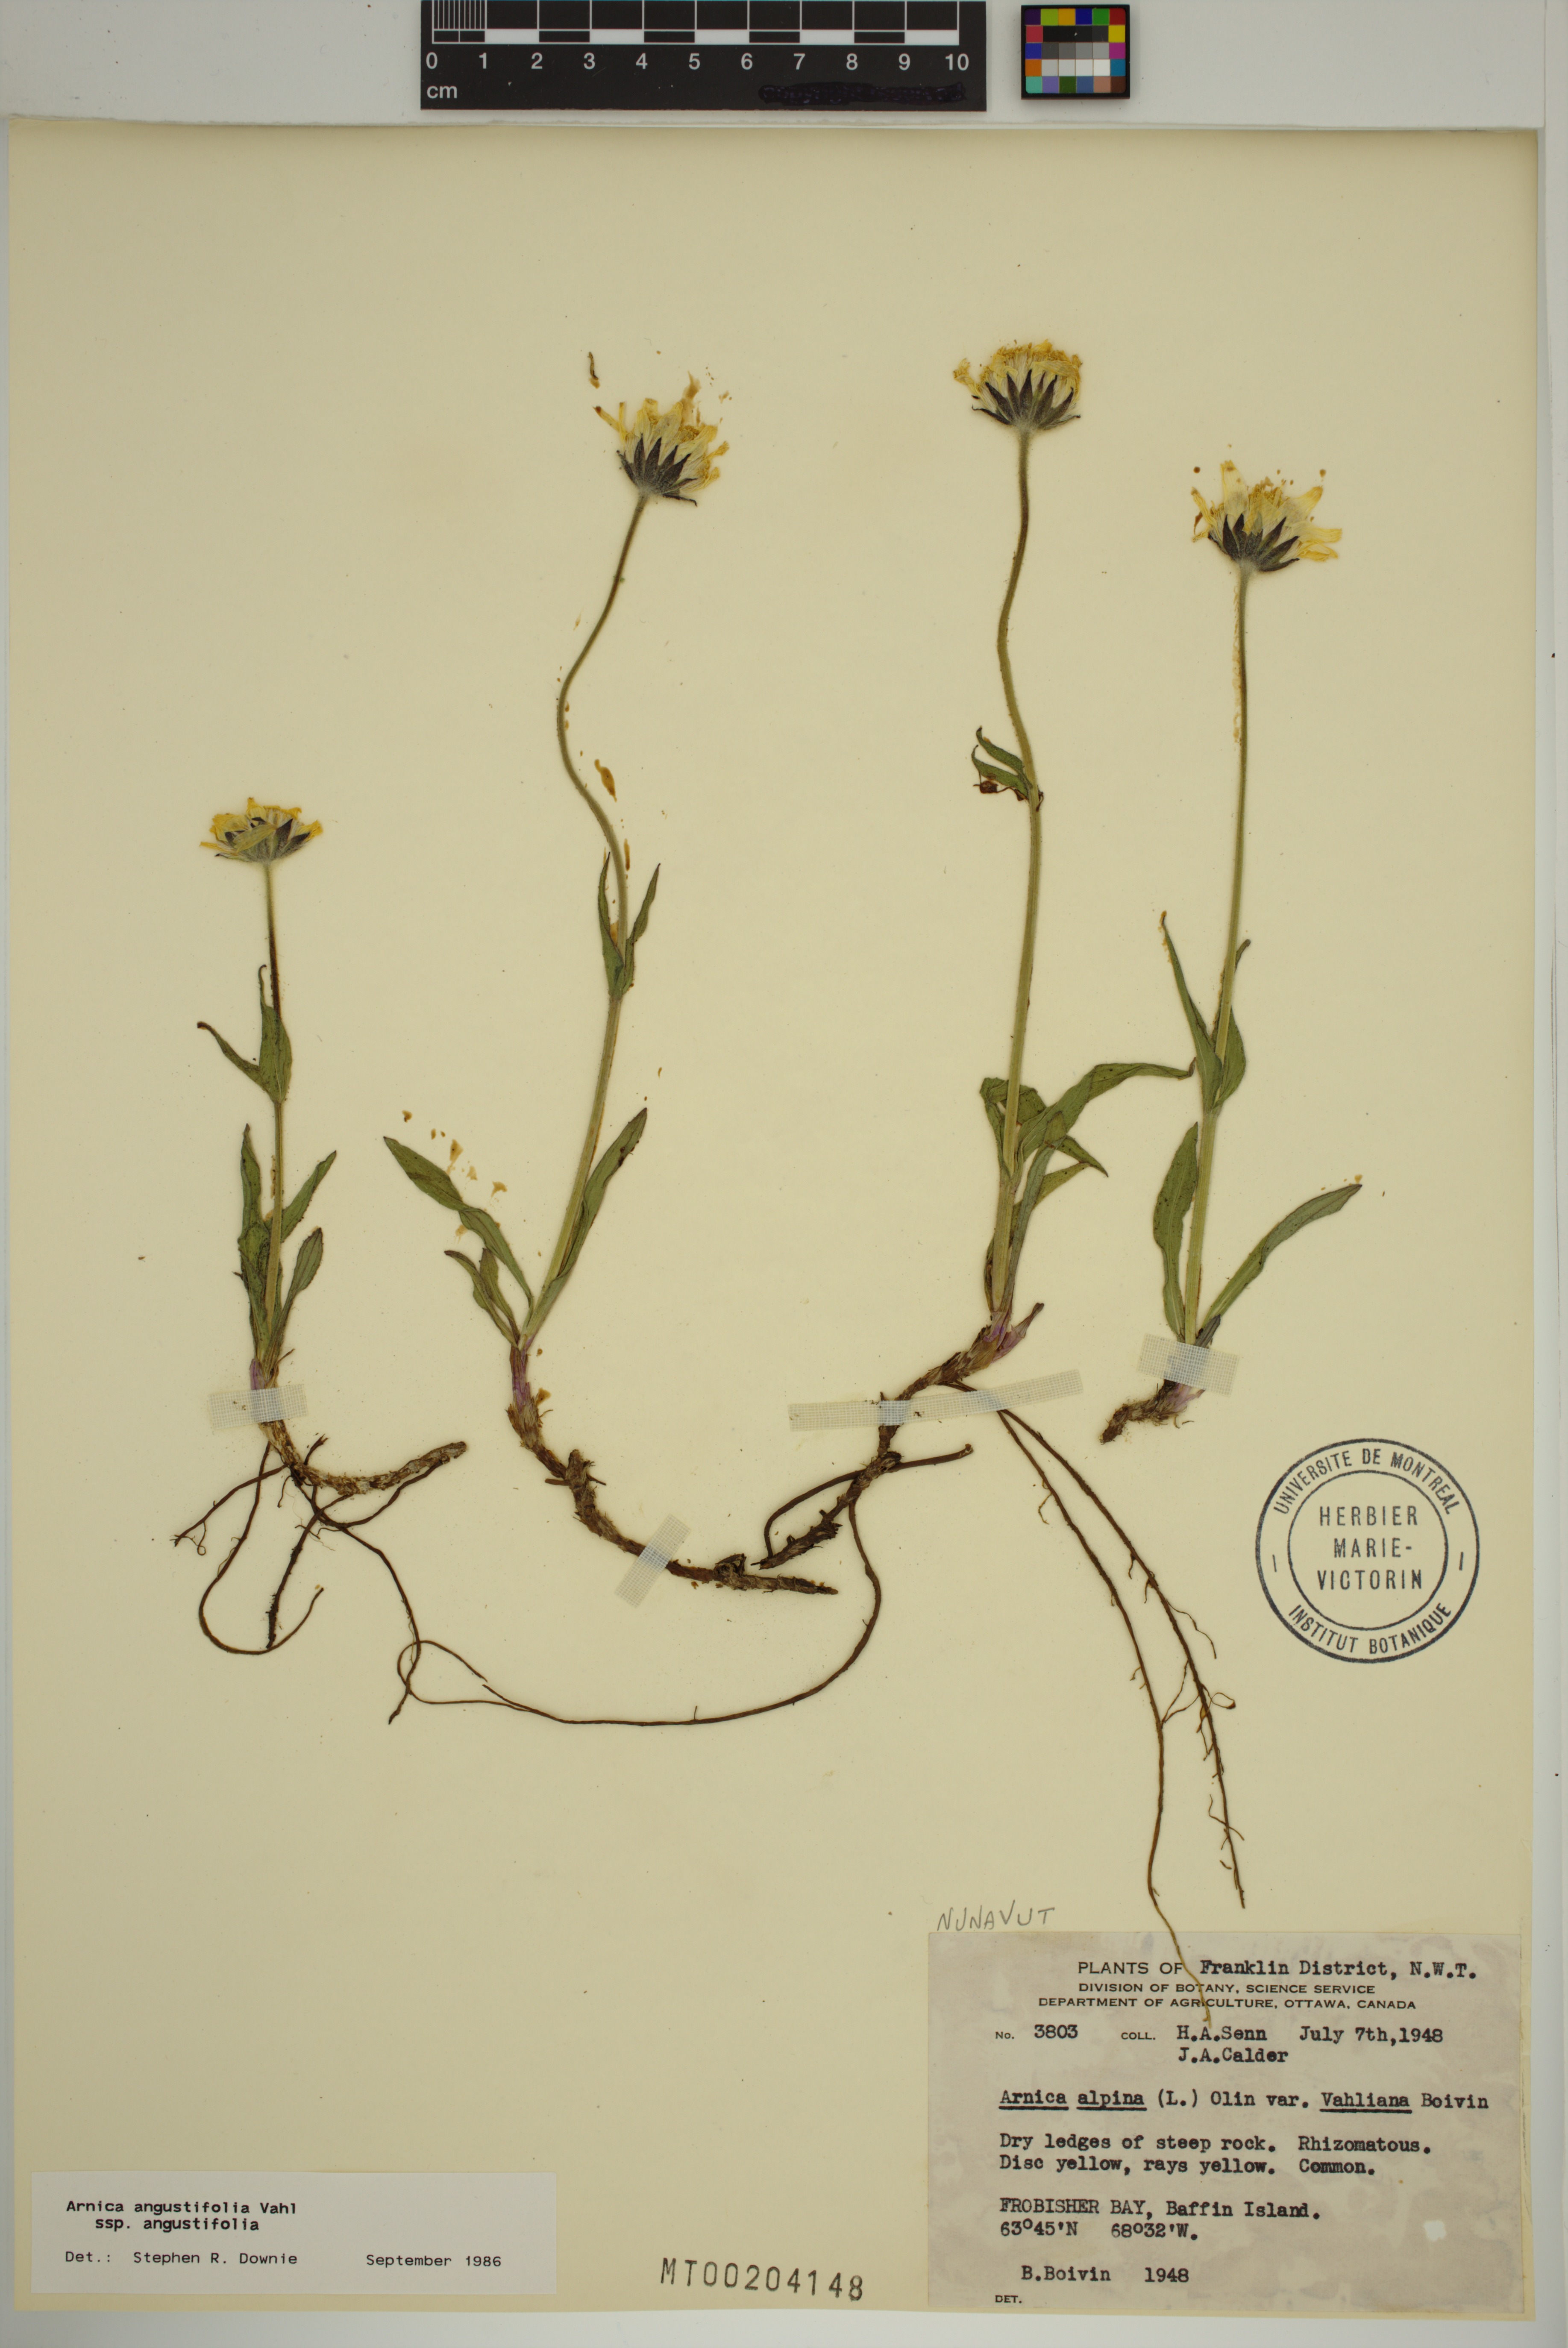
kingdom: Plantae
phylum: Tracheophyta
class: Magnoliopsida
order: Asterales
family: Asteraceae
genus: Arnica
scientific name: Arnica angustifolia
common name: Arctic arnica
